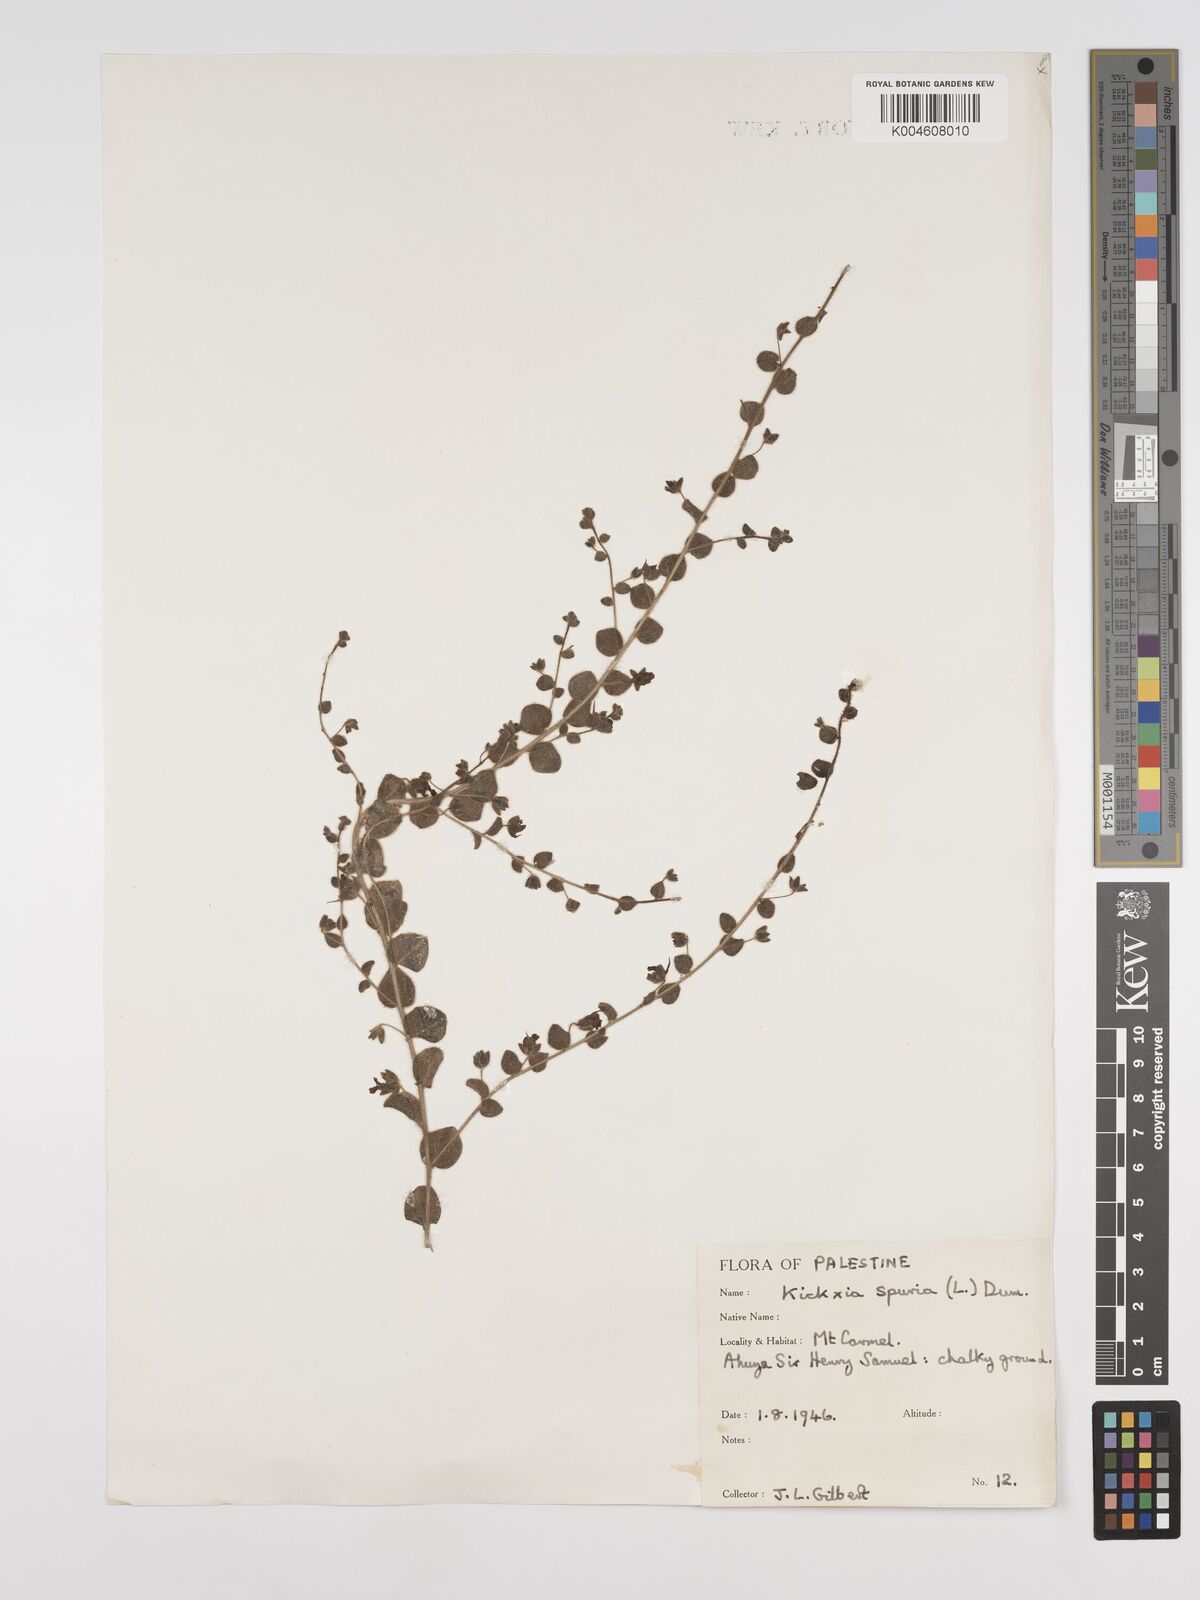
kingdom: Plantae
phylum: Tracheophyta
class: Magnoliopsida
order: Lamiales
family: Plantaginaceae
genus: Kickxia
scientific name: Kickxia spuria
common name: Round-leaved fluellen
